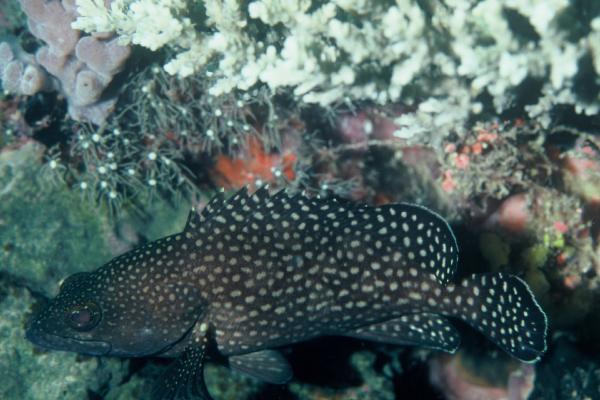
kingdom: Animalia
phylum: Chordata
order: Perciformes
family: Serranidae
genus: Epinephelus
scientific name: Epinephelus ongus
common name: White-streaked grouper
